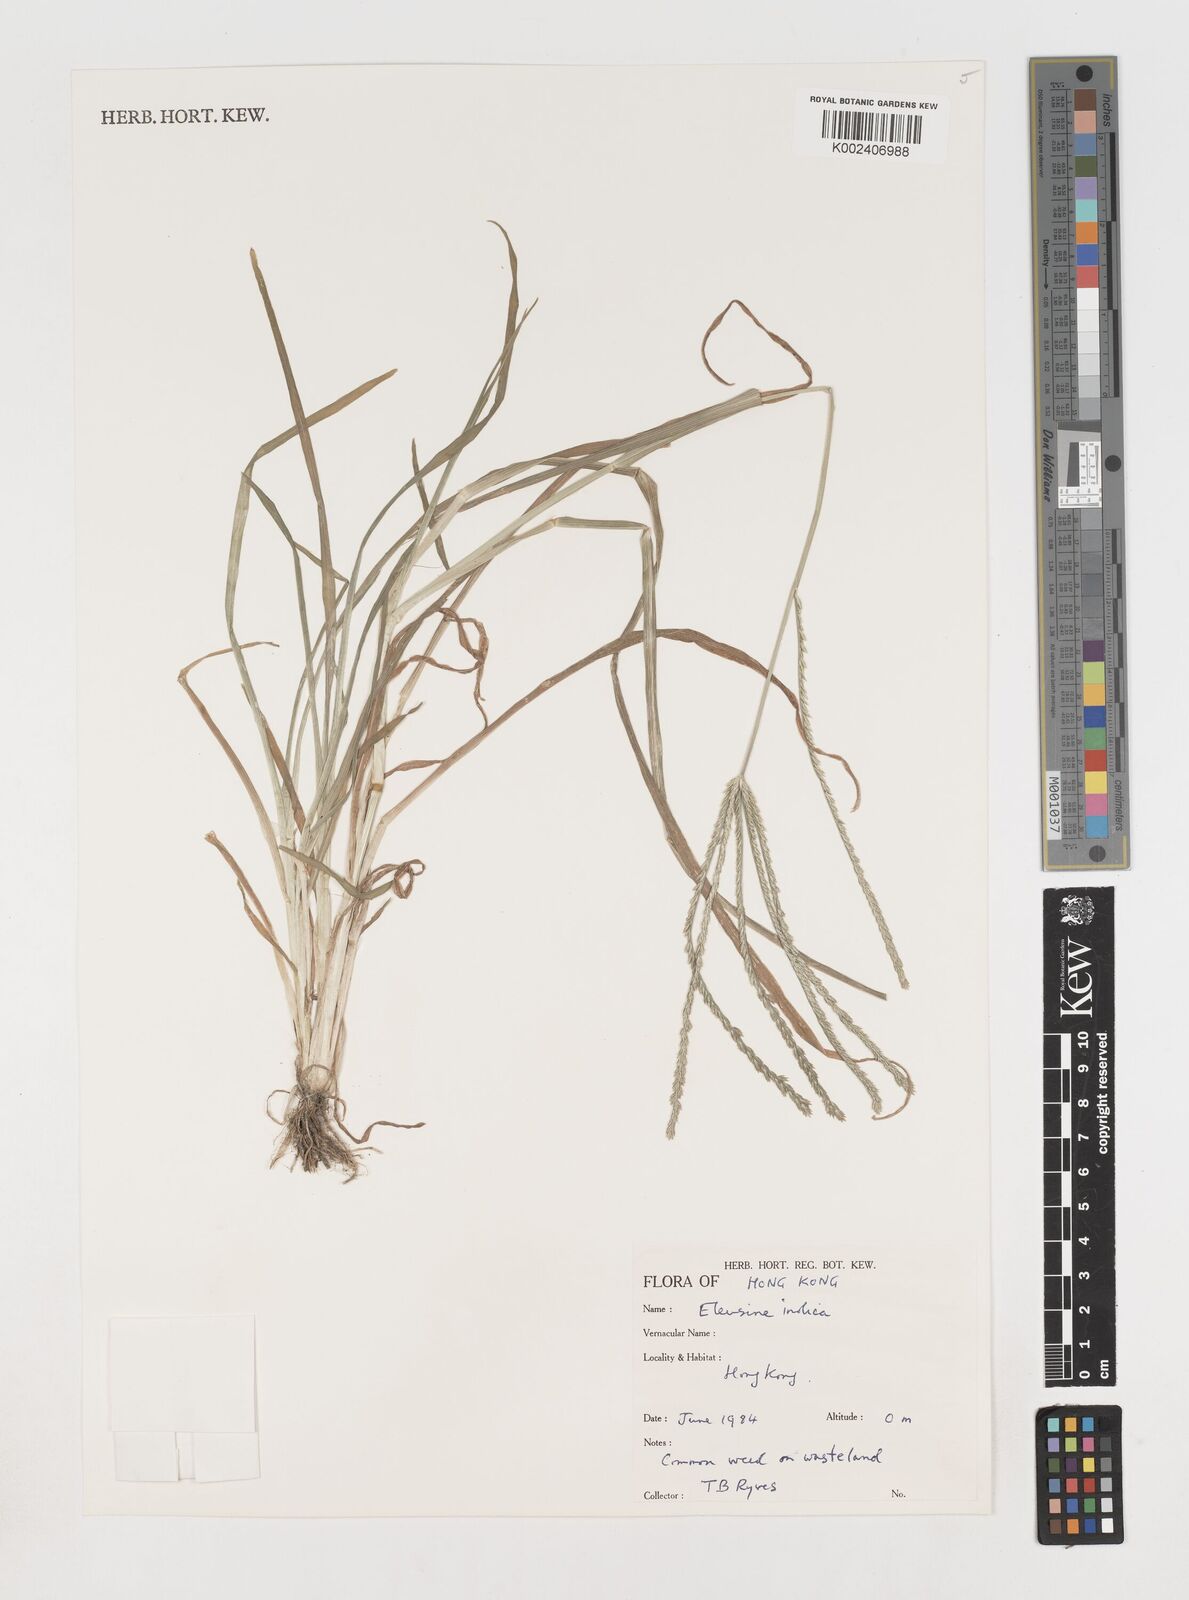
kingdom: Plantae
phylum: Tracheophyta
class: Liliopsida
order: Poales
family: Poaceae
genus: Eleusine
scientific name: Eleusine indica
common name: Yard-grass
